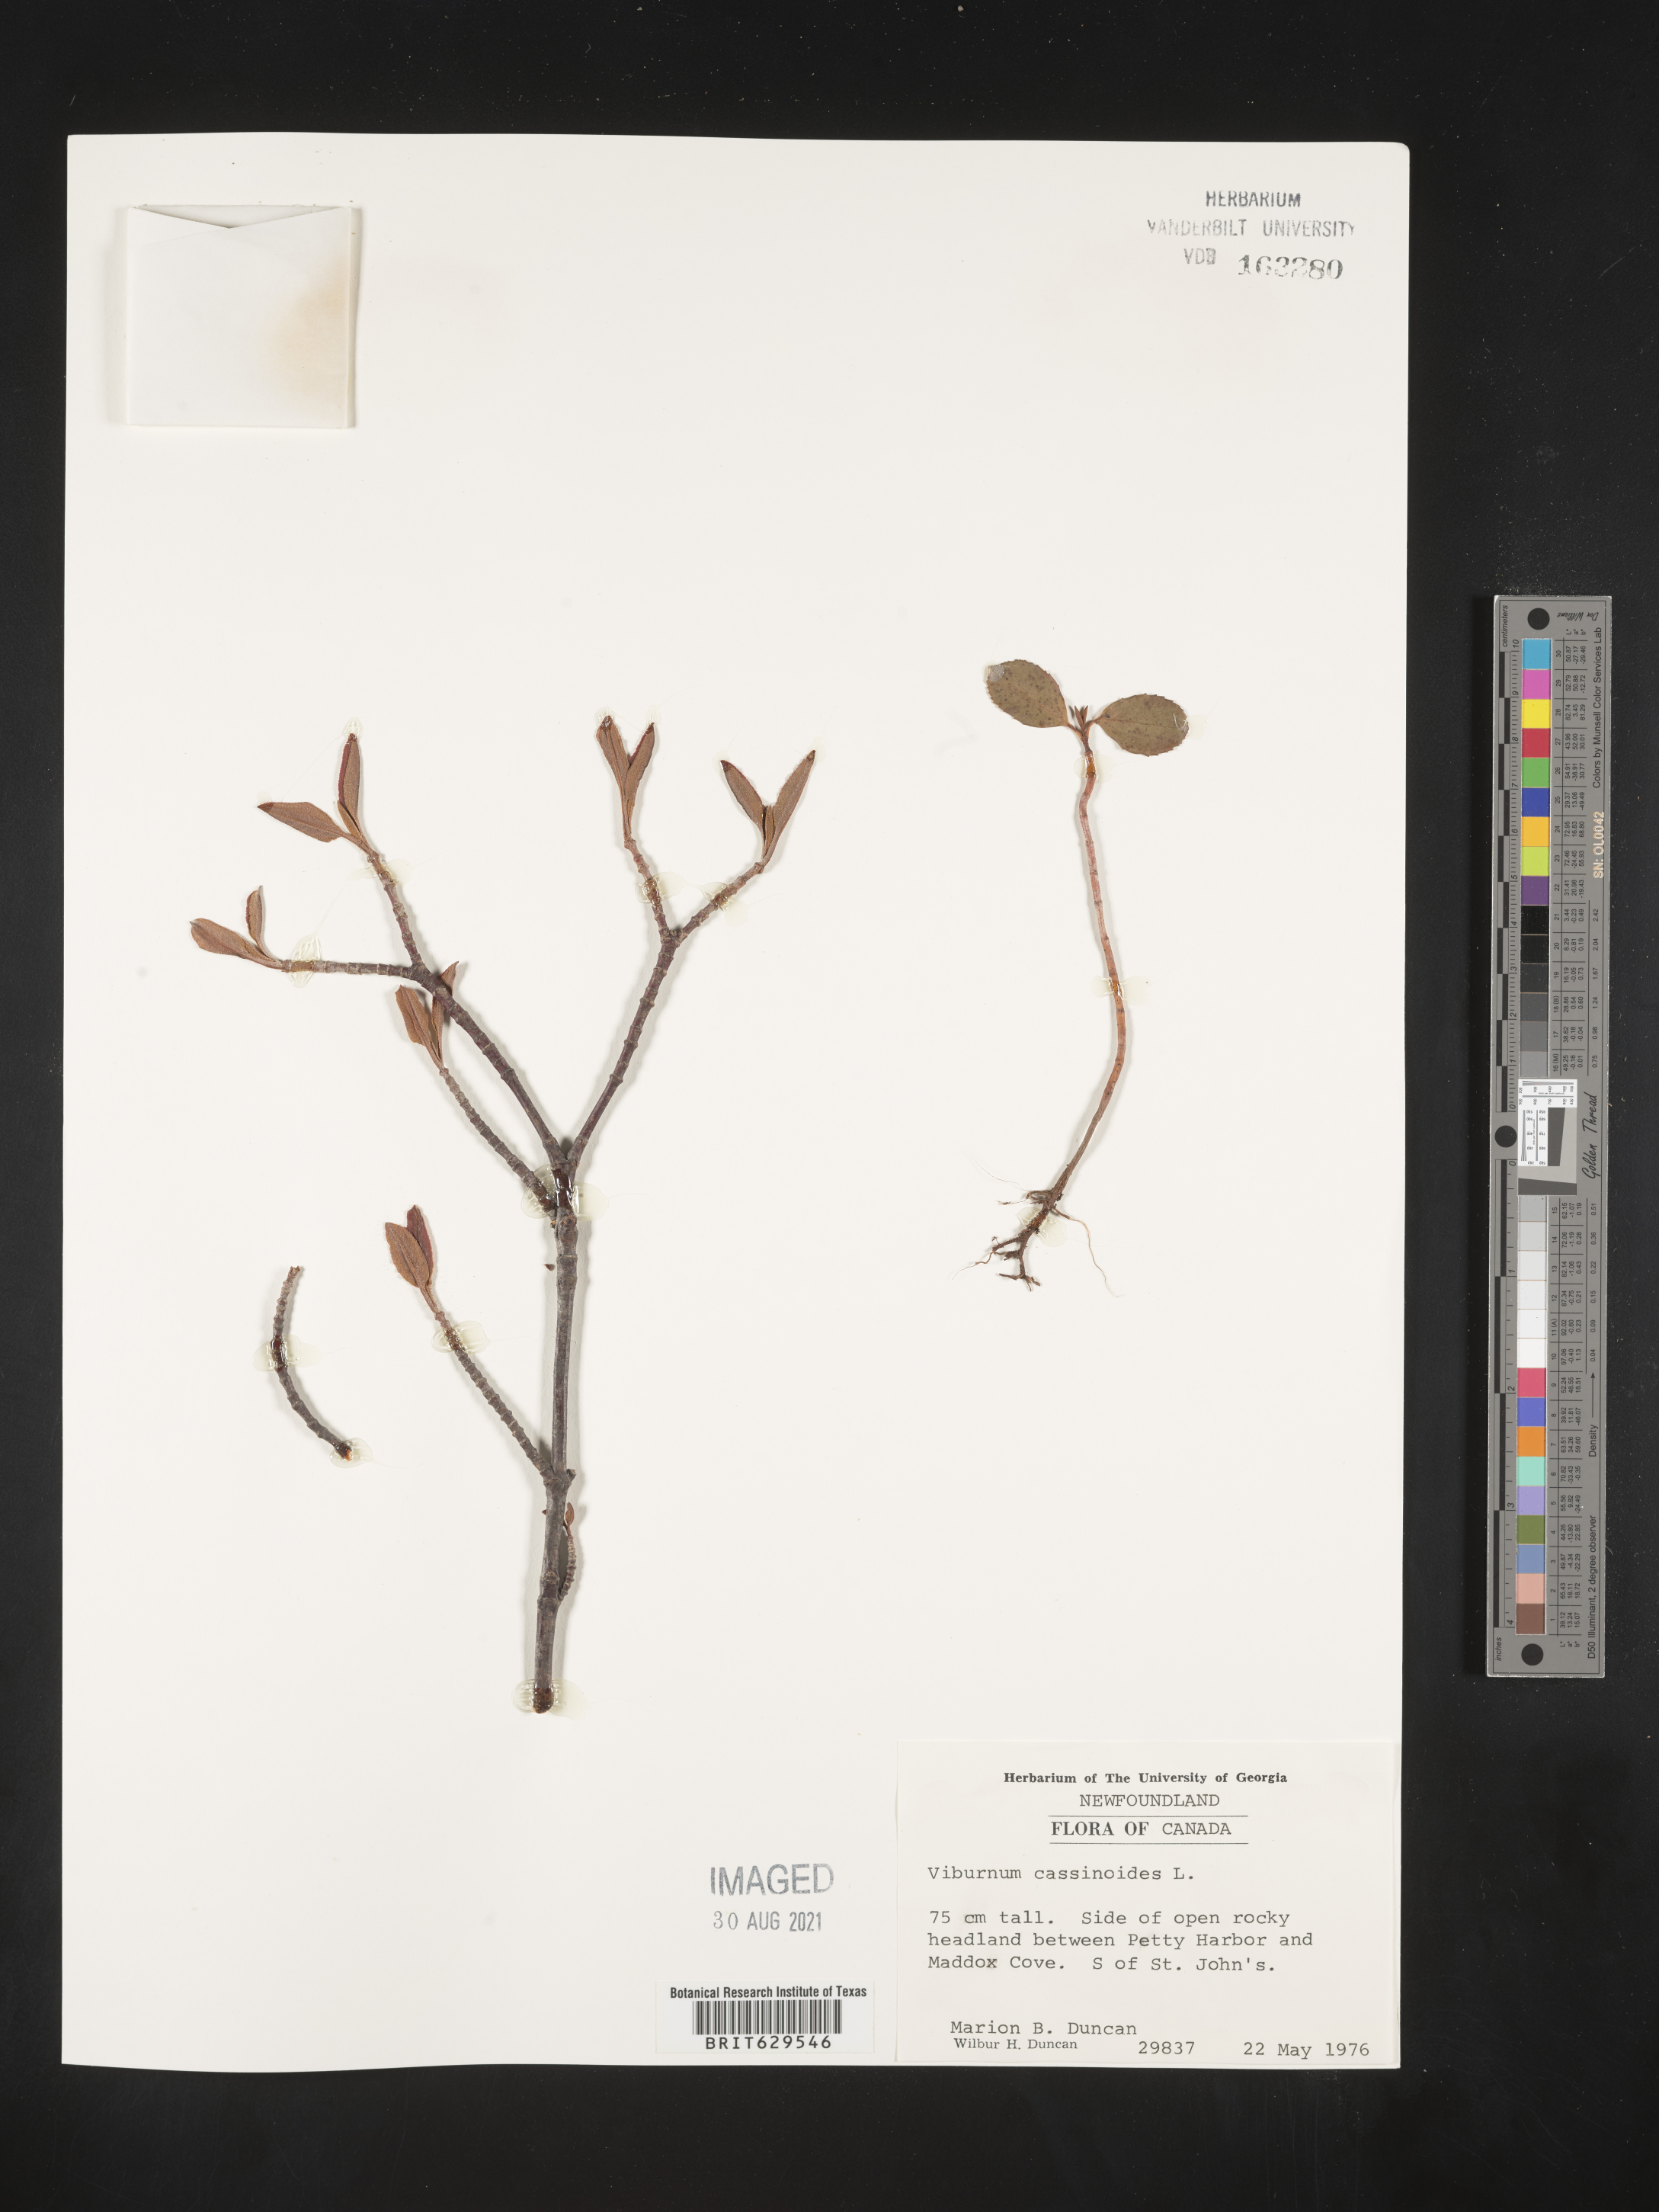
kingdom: Plantae
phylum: Tracheophyta
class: Magnoliopsida
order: Dipsacales
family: Viburnaceae
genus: Viburnum
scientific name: Viburnum cassinoides
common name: Swamp haw
